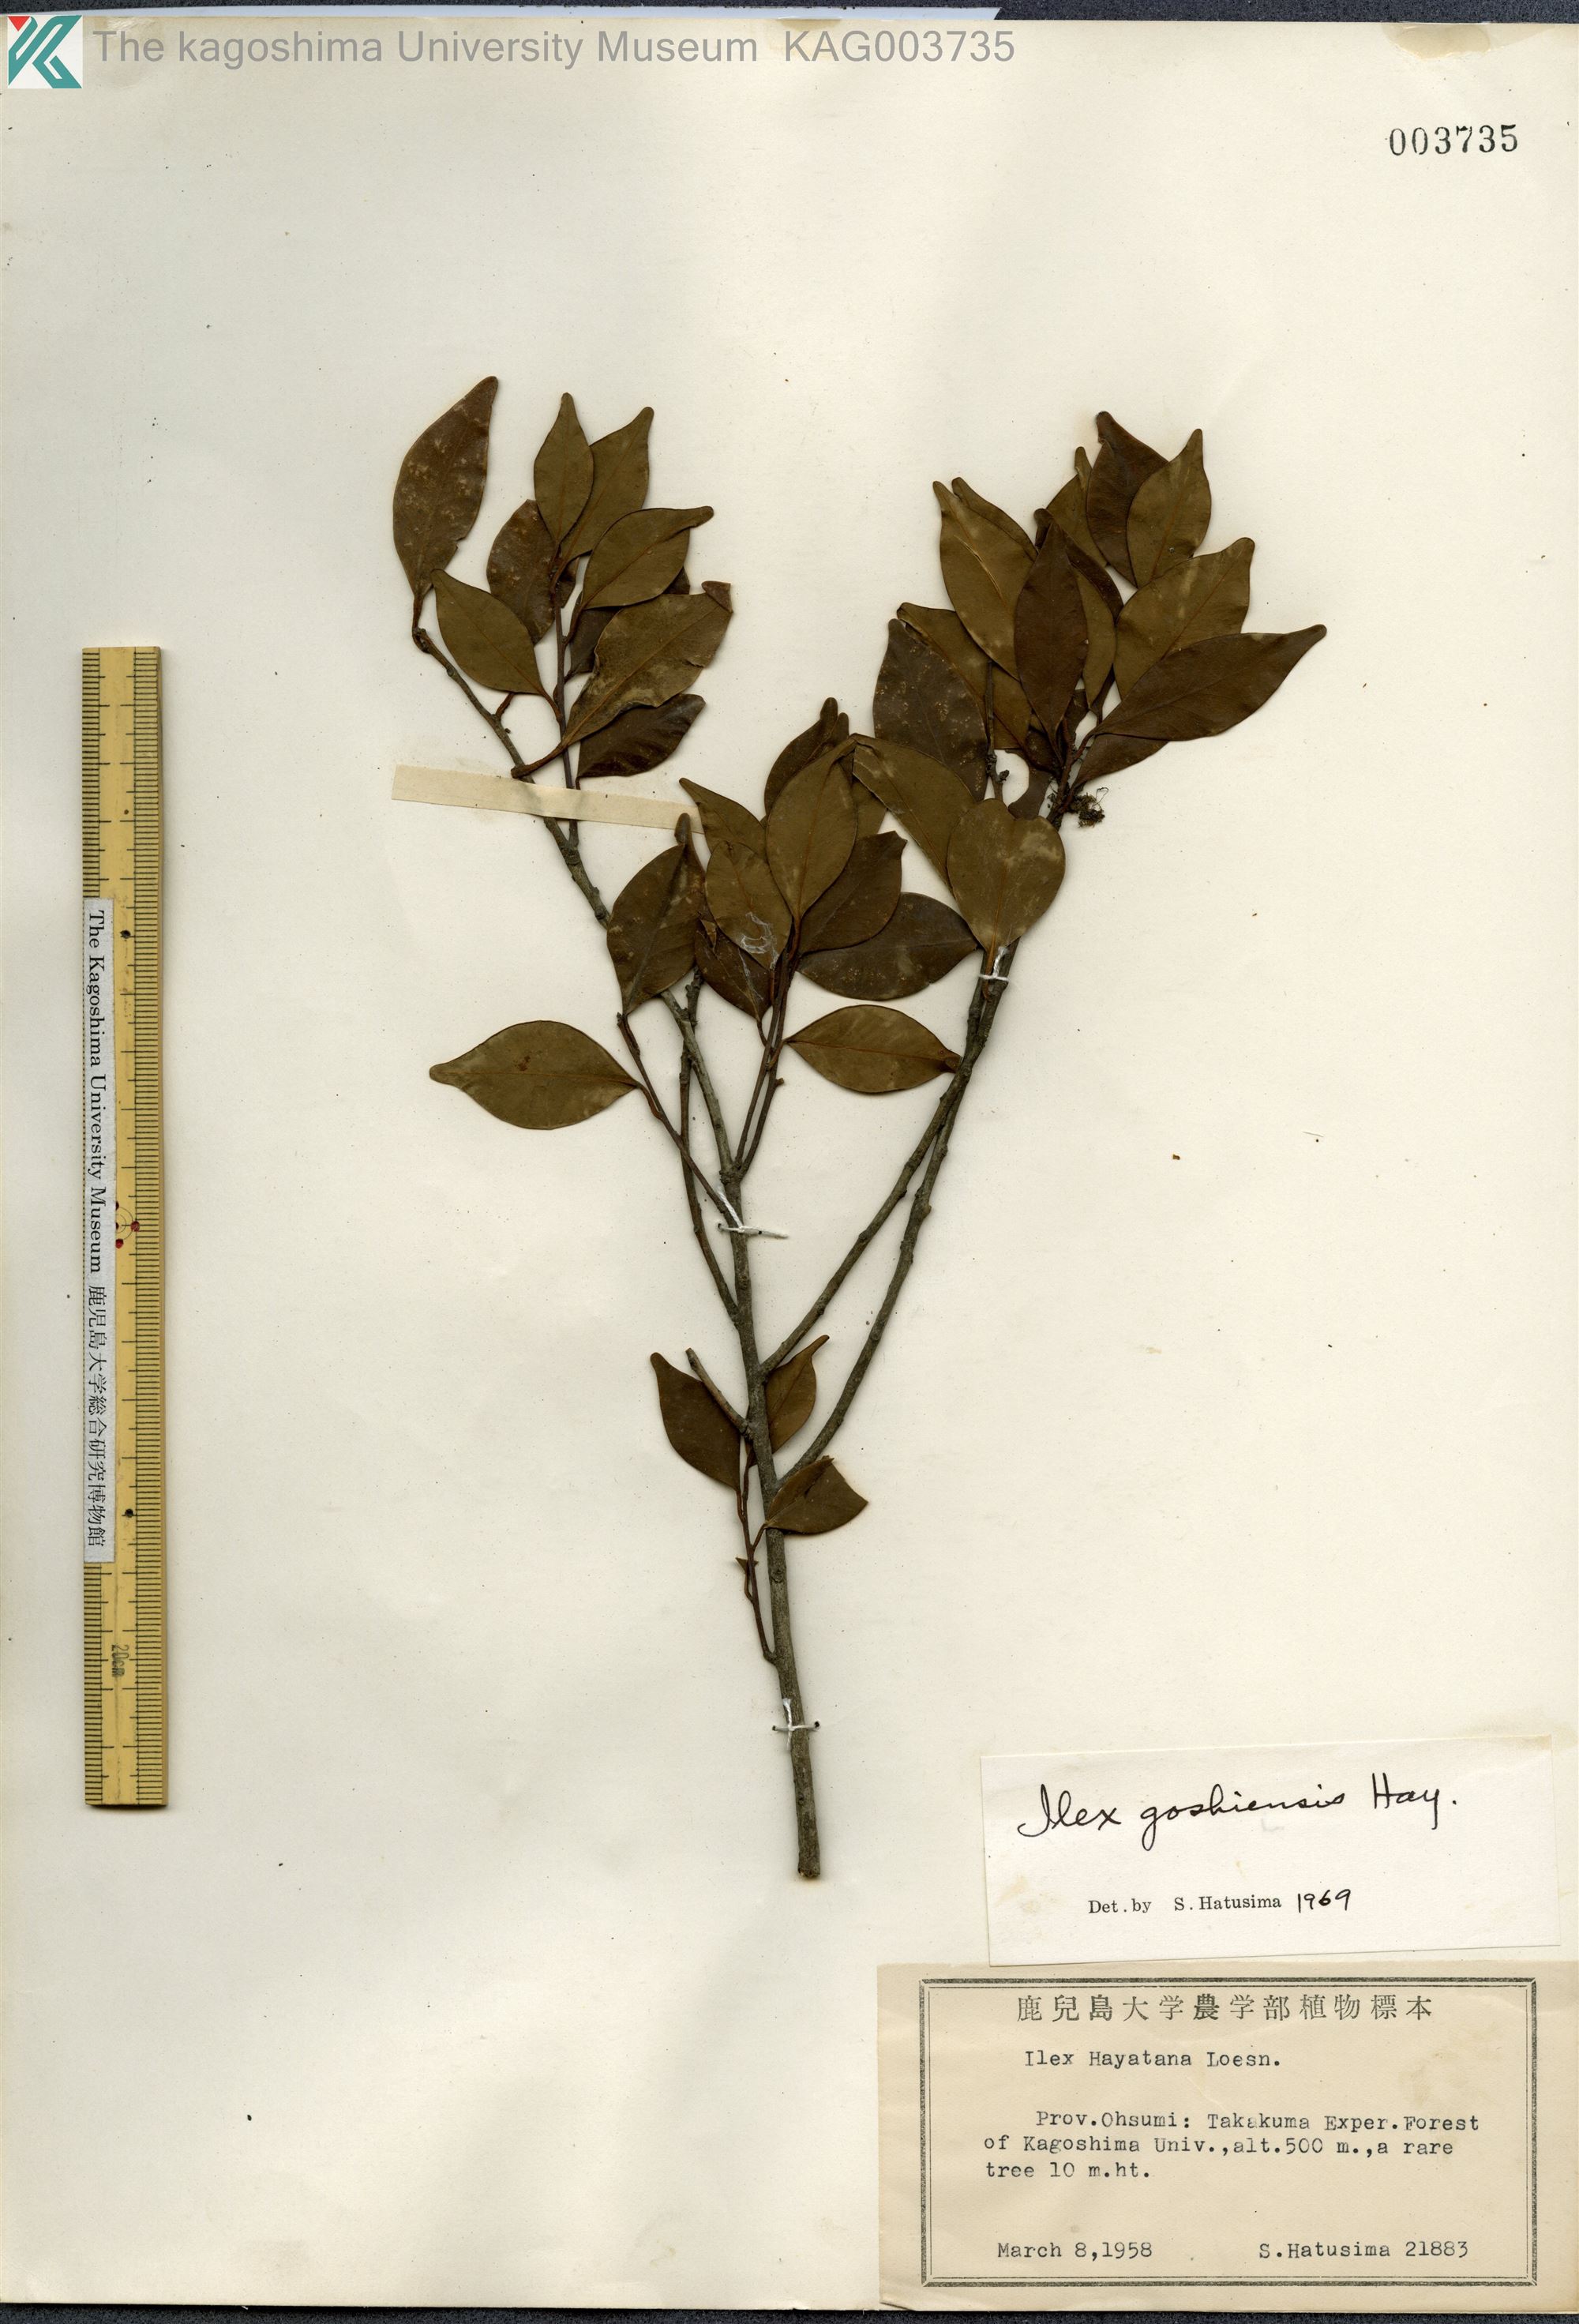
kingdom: Plantae
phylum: Tracheophyta
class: Magnoliopsida
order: Aquifoliales
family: Aquifoliaceae
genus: Ilex
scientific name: Ilex goshiensis
